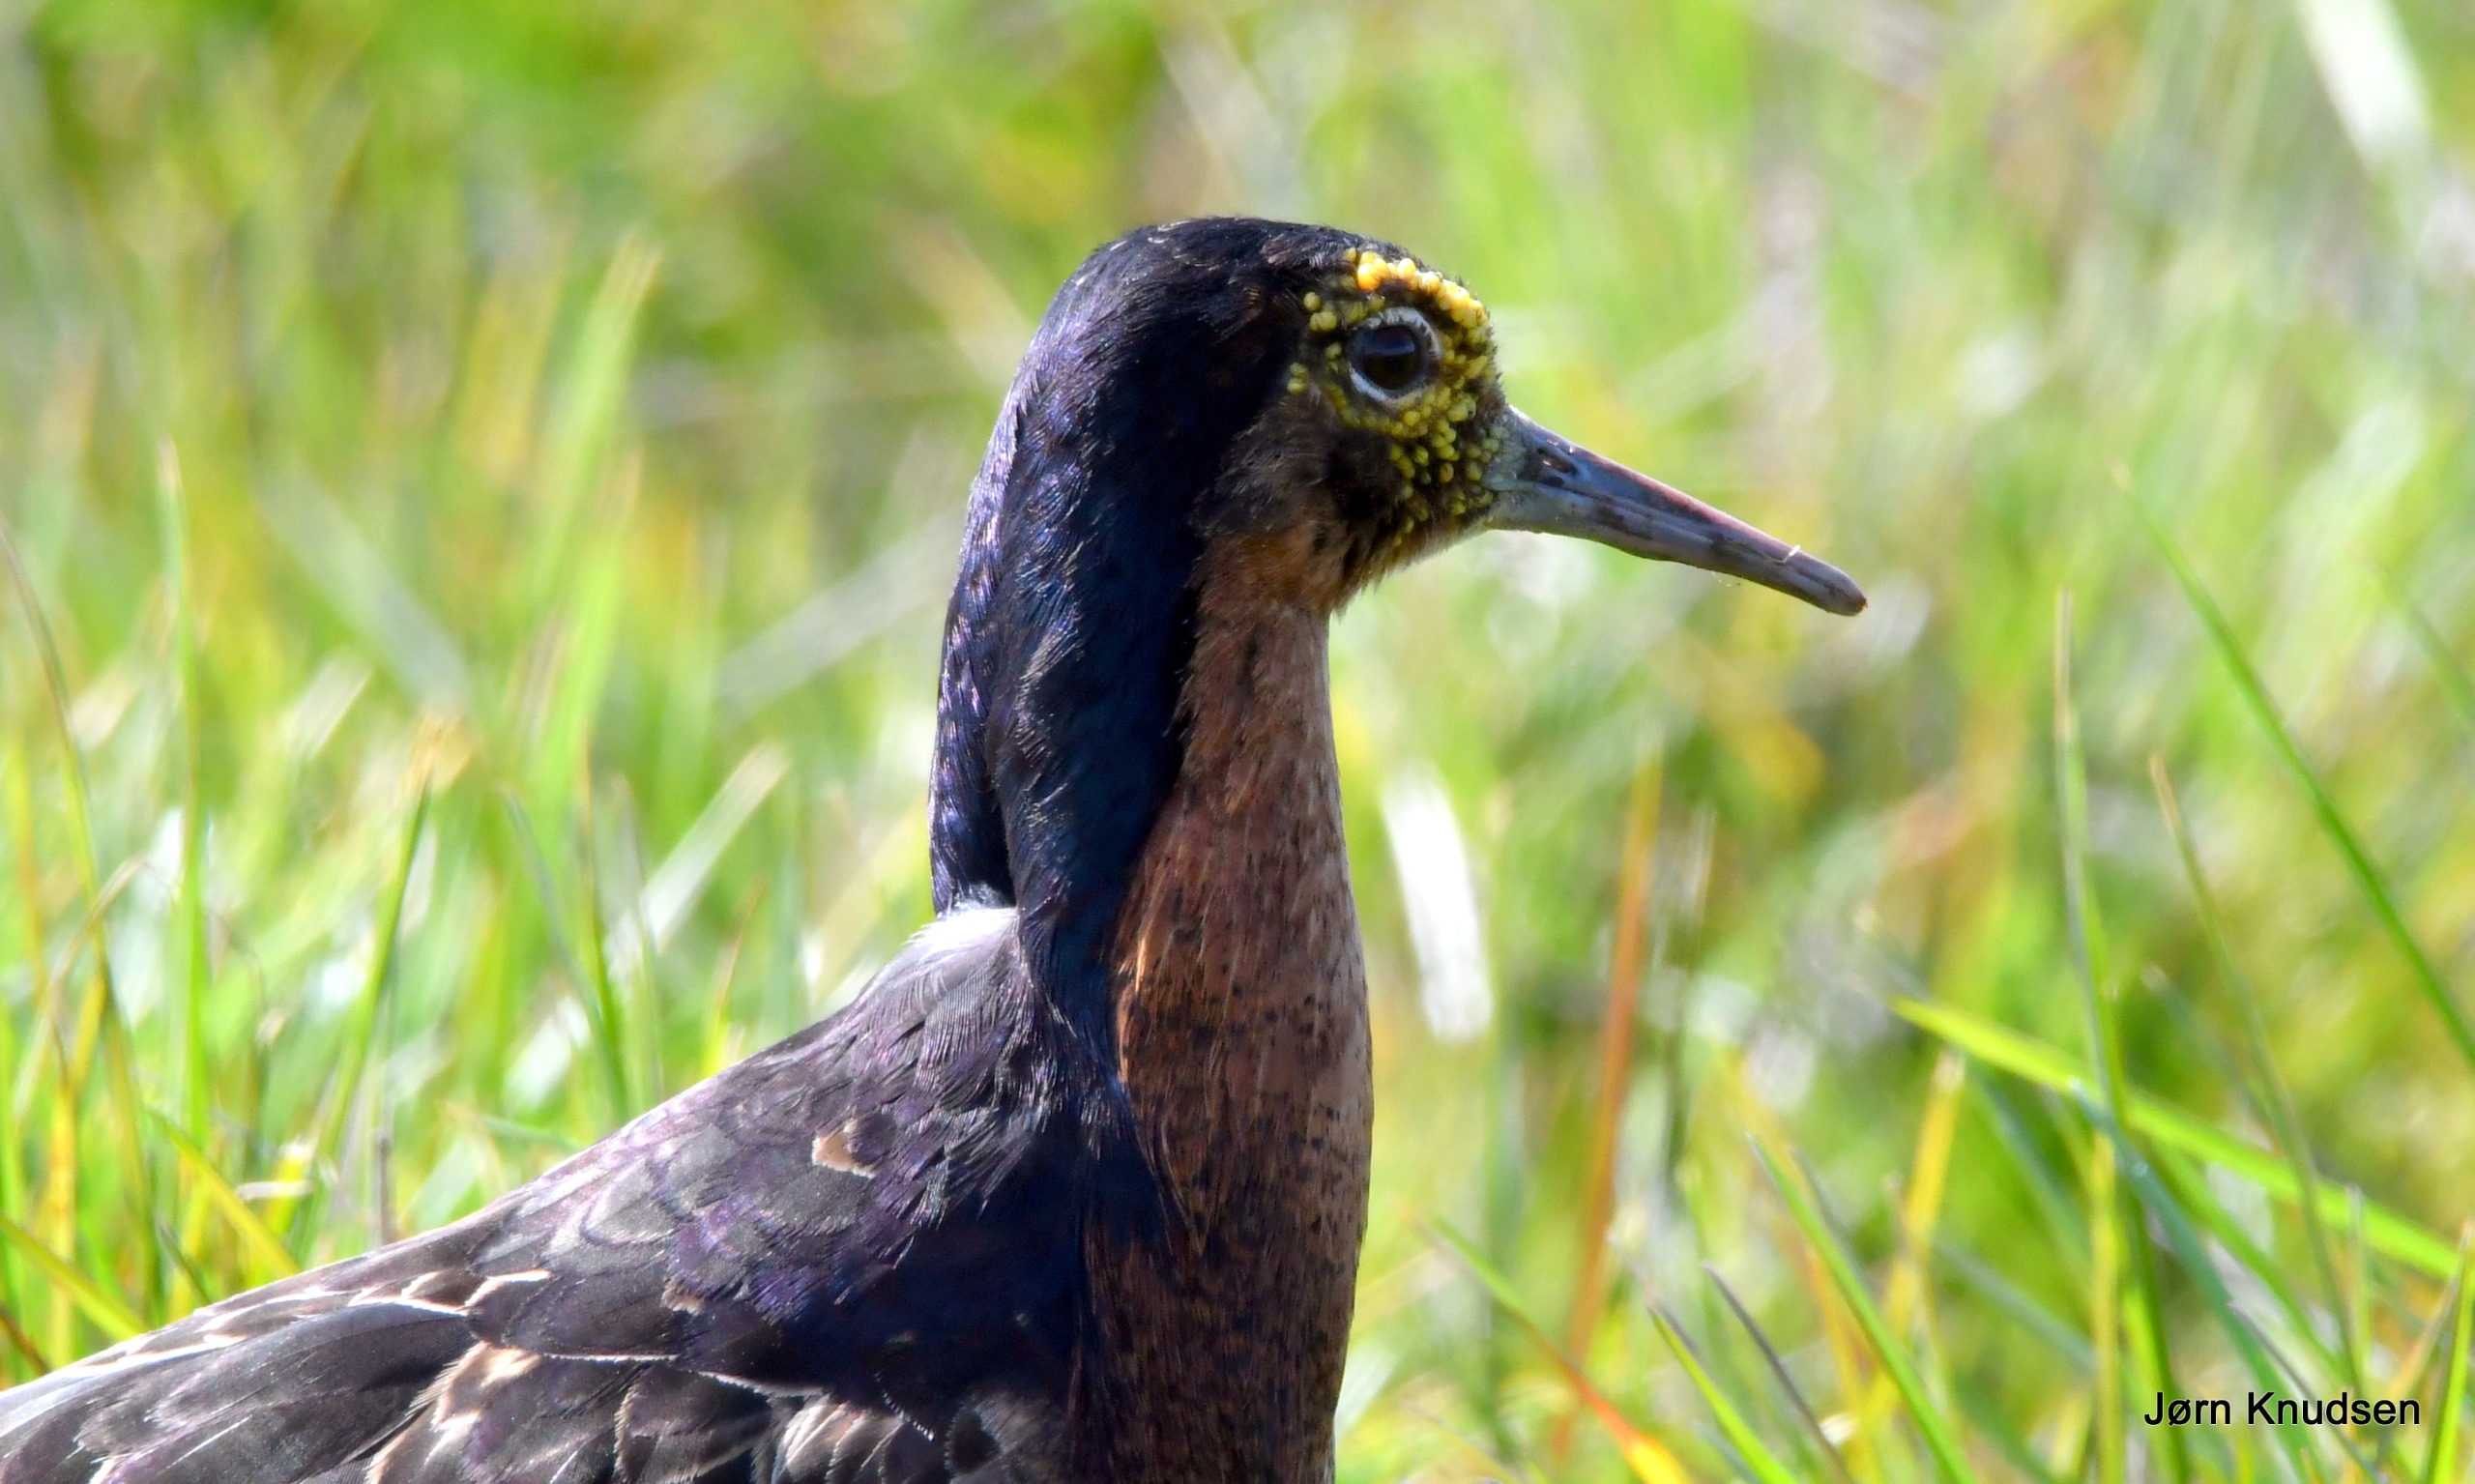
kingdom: Animalia
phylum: Chordata
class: Aves
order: Charadriiformes
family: Scolopacidae
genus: Calidris
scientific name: Calidris pugnax
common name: Brushane
